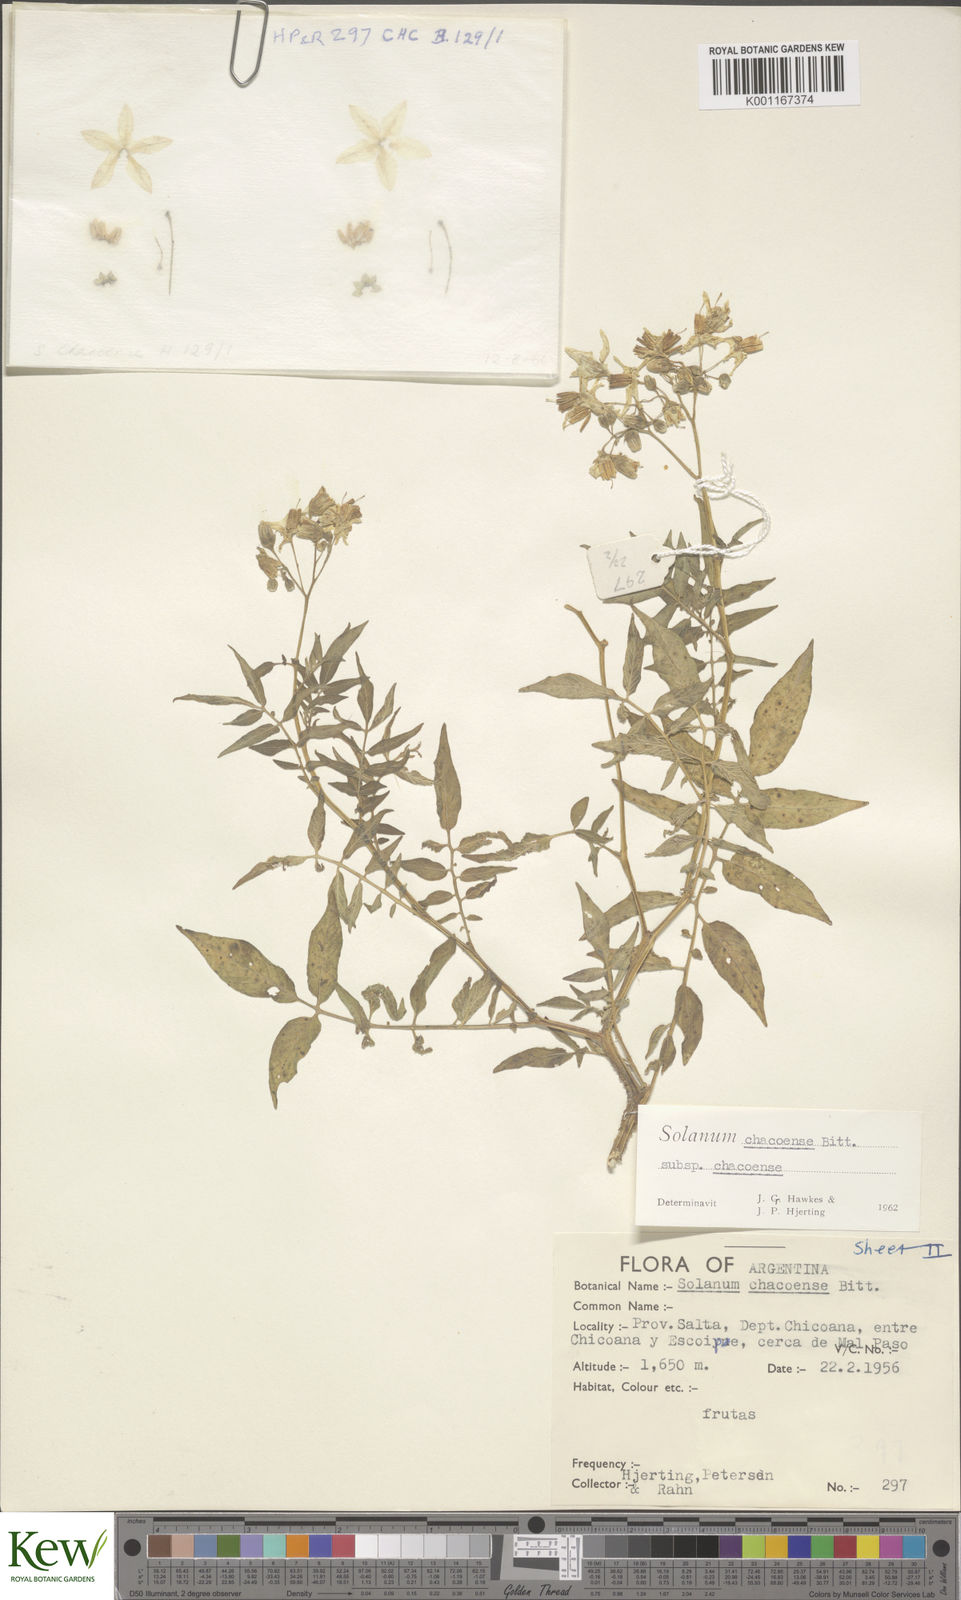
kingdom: Plantae
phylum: Tracheophyta
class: Magnoliopsida
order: Solanales
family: Solanaceae
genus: Solanum
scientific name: Solanum chacoense
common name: Chaco potato
